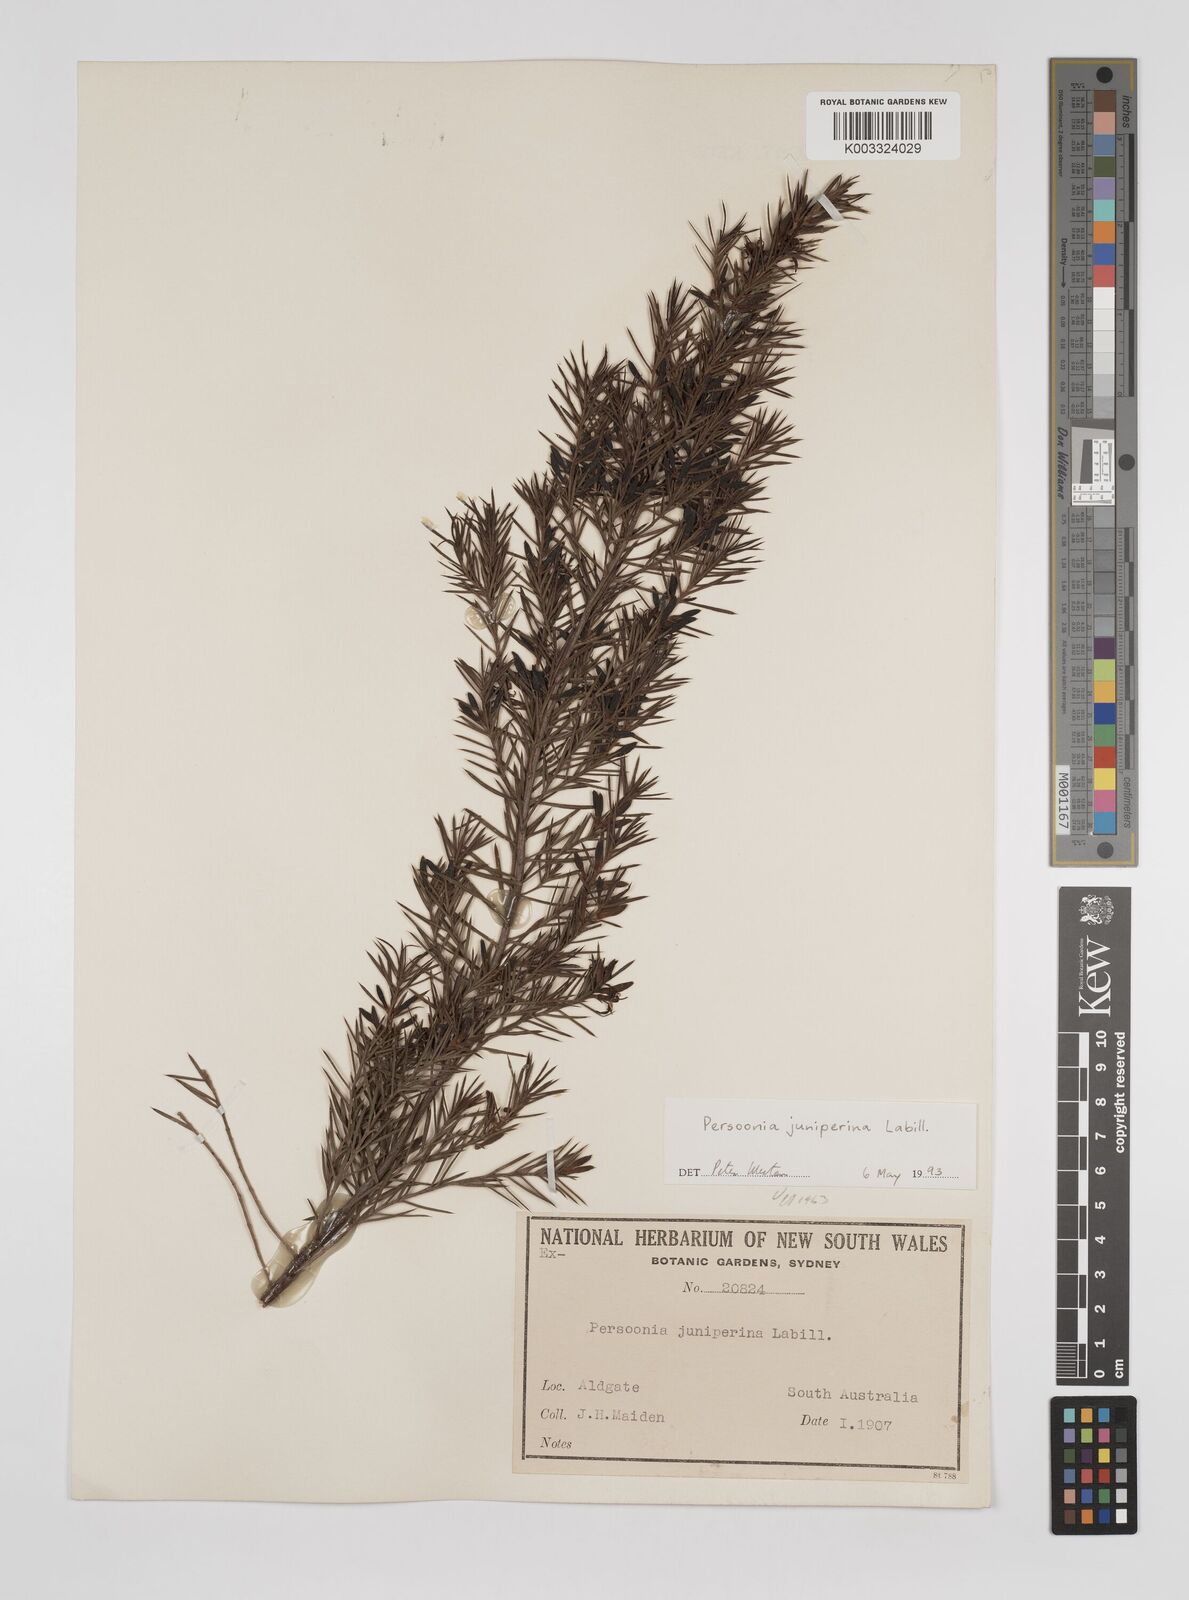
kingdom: Plantae
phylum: Tracheophyta
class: Magnoliopsida
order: Proteales
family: Proteaceae
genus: Persoonia
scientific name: Persoonia juniperina
